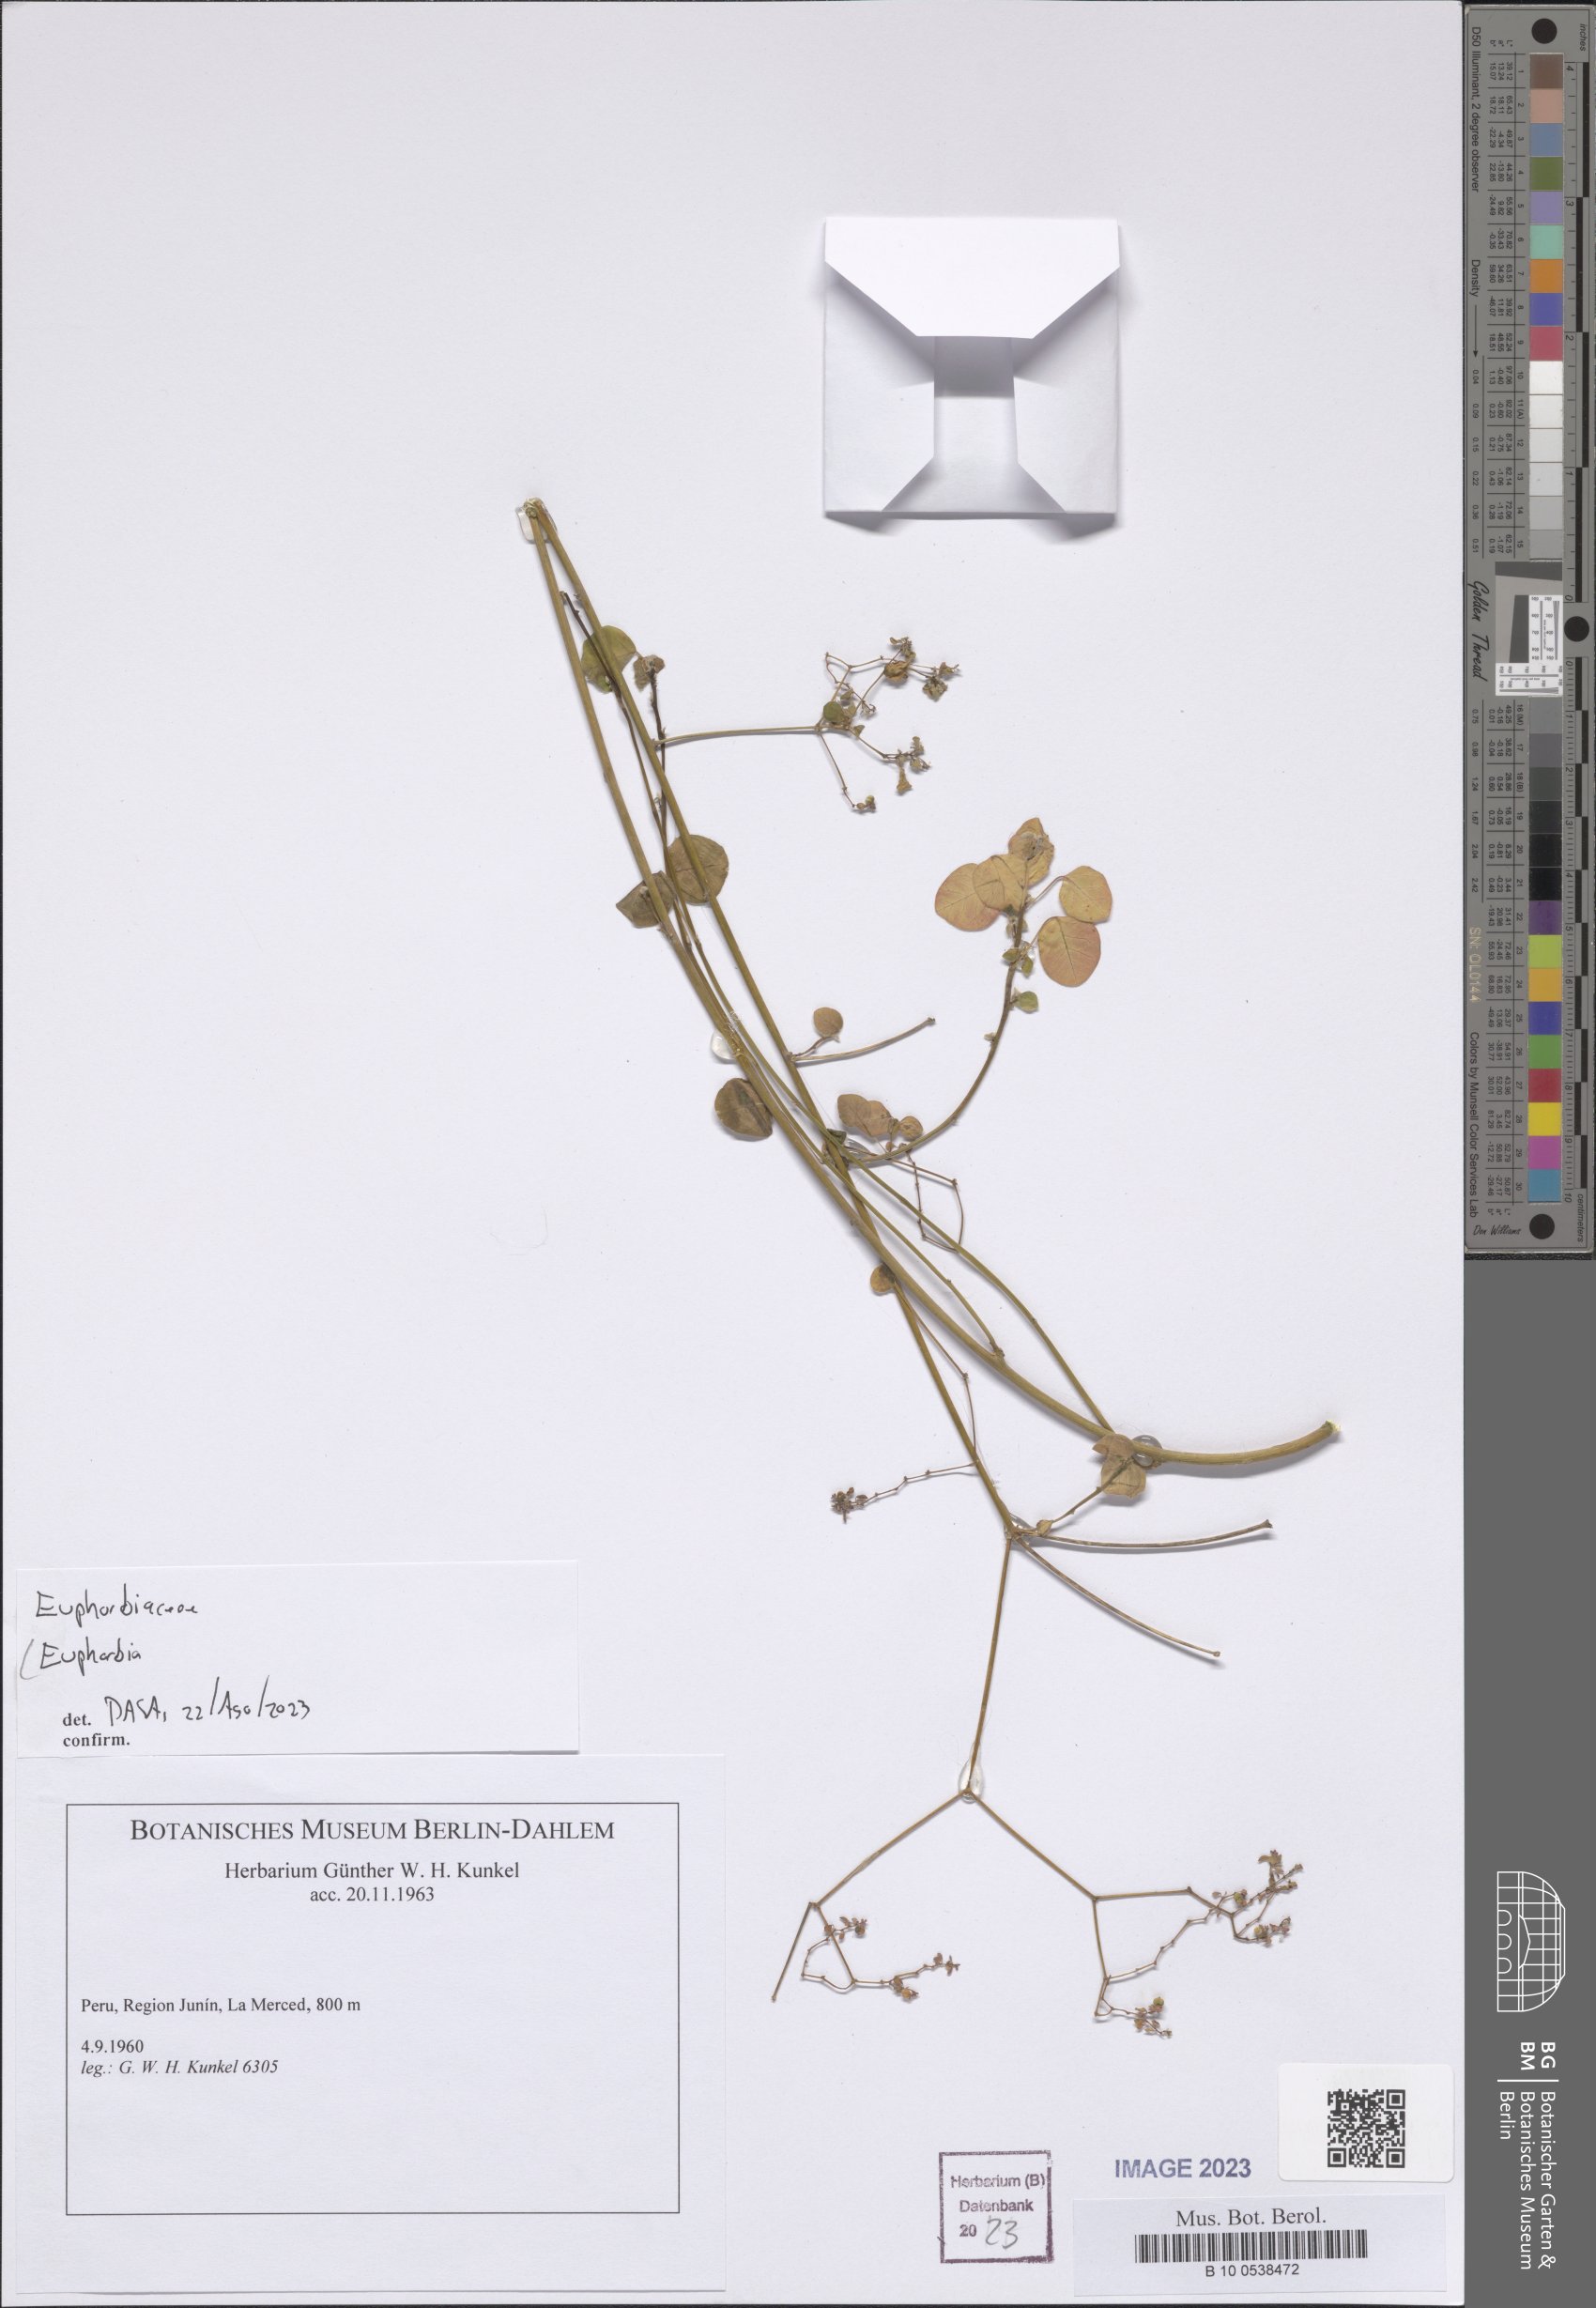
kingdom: Plantae
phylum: Tracheophyta
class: Magnoliopsida
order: Malpighiales
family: Euphorbiaceae
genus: Euphorbia
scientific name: Euphorbia
